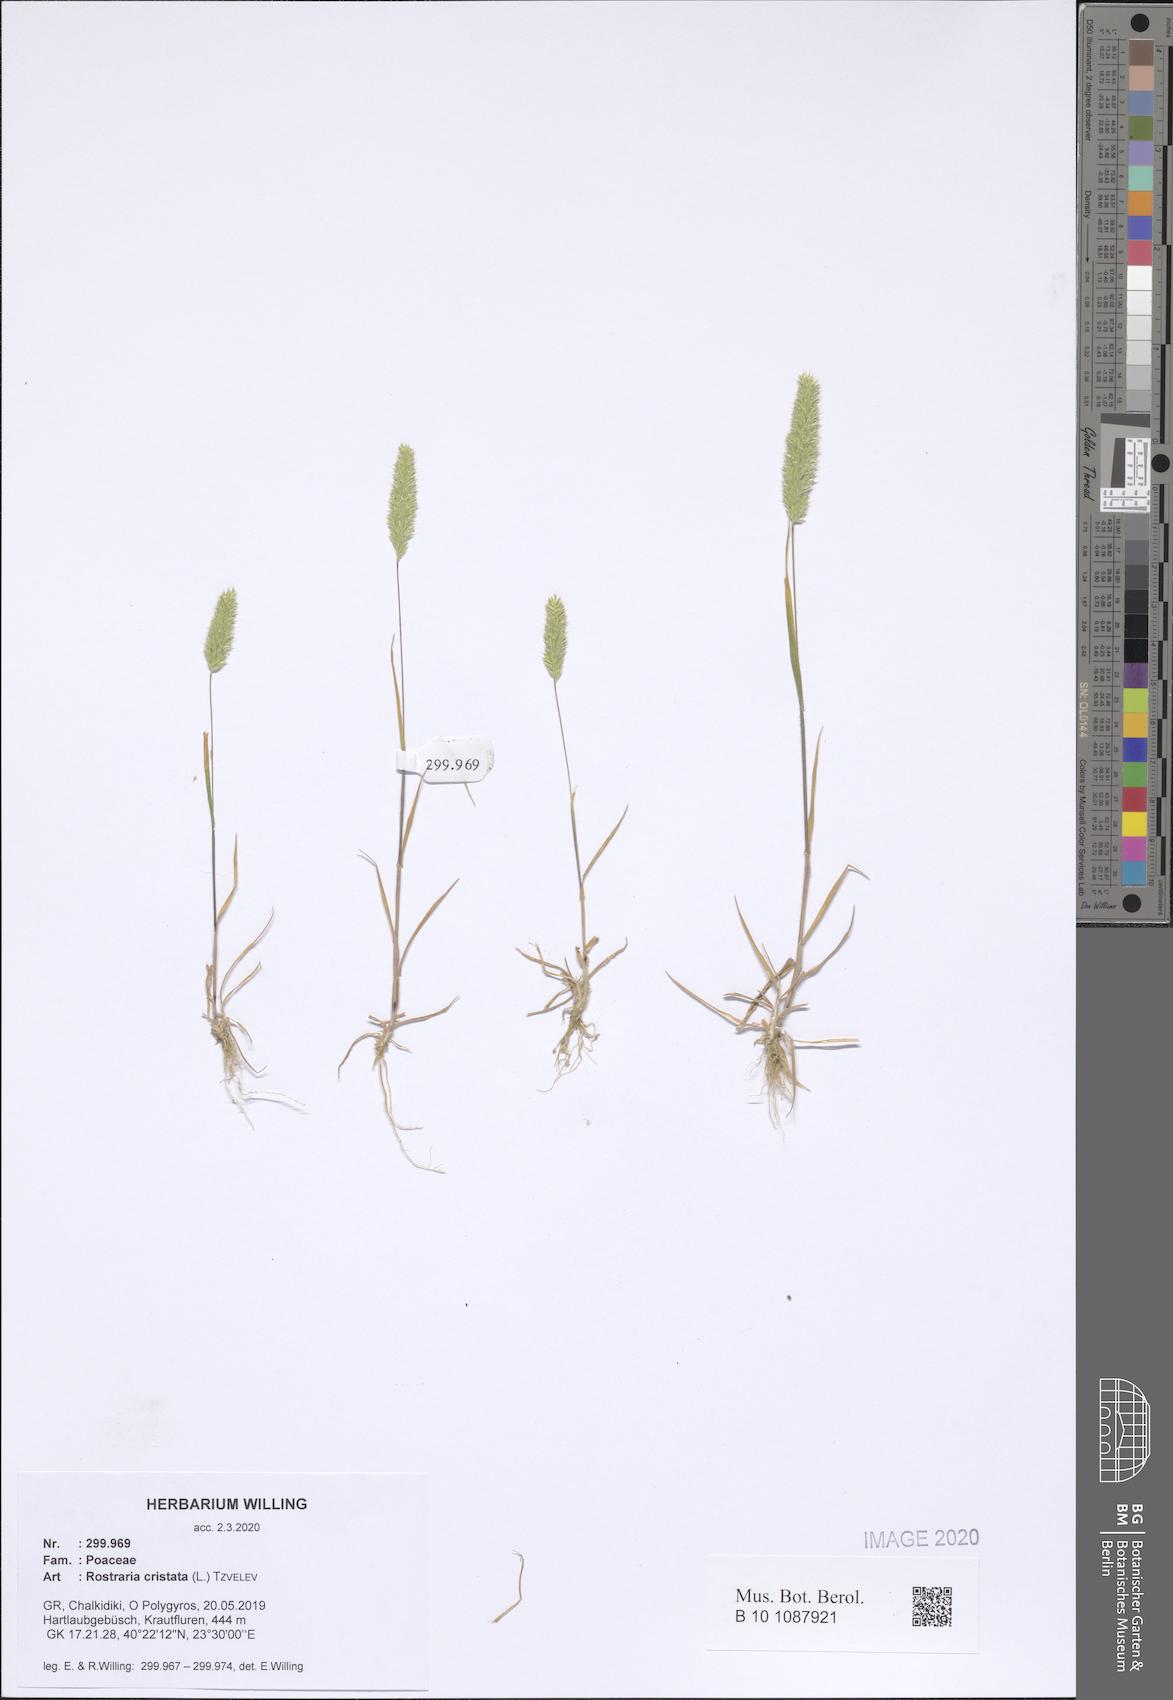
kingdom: Plantae
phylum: Tracheophyta
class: Liliopsida
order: Poales
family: Poaceae
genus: Rostraria
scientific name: Rostraria cristata
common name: Mediterranean hair-grass
